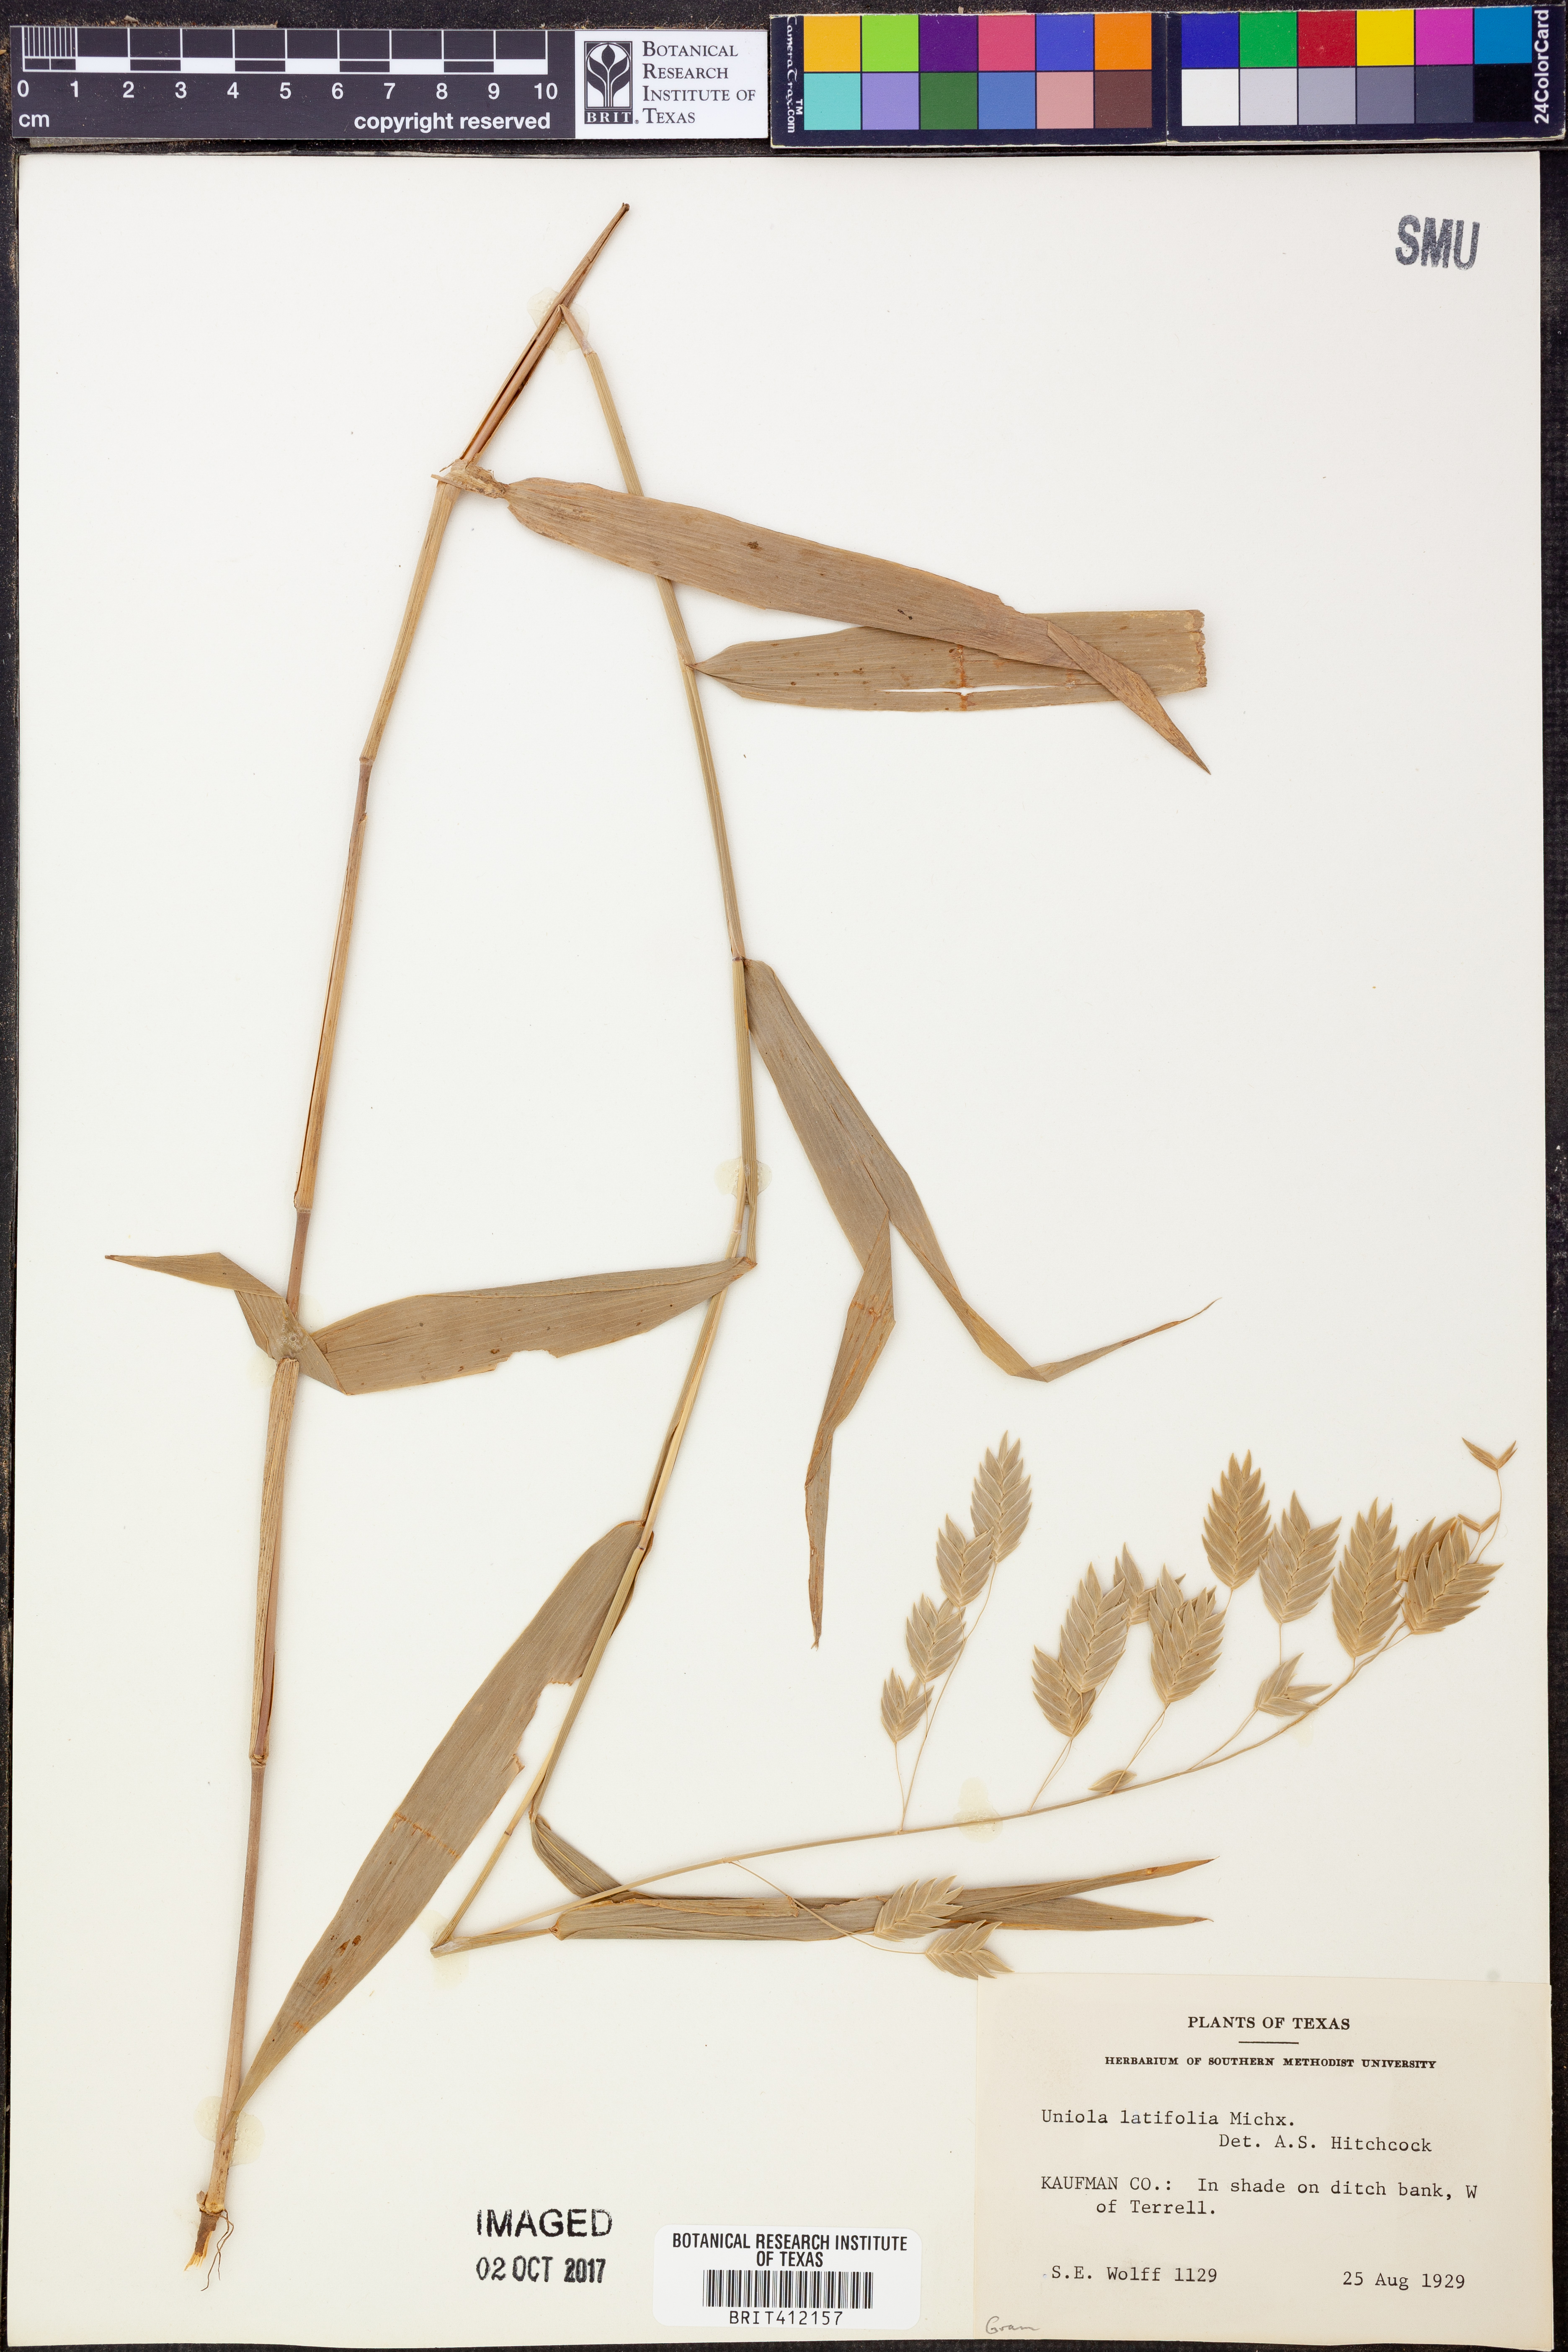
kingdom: Plantae
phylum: Tracheophyta
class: Liliopsida
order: Poales
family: Poaceae
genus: Chasmanthium
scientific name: Chasmanthium latifolium
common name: Broad-leaved chasmanthium
